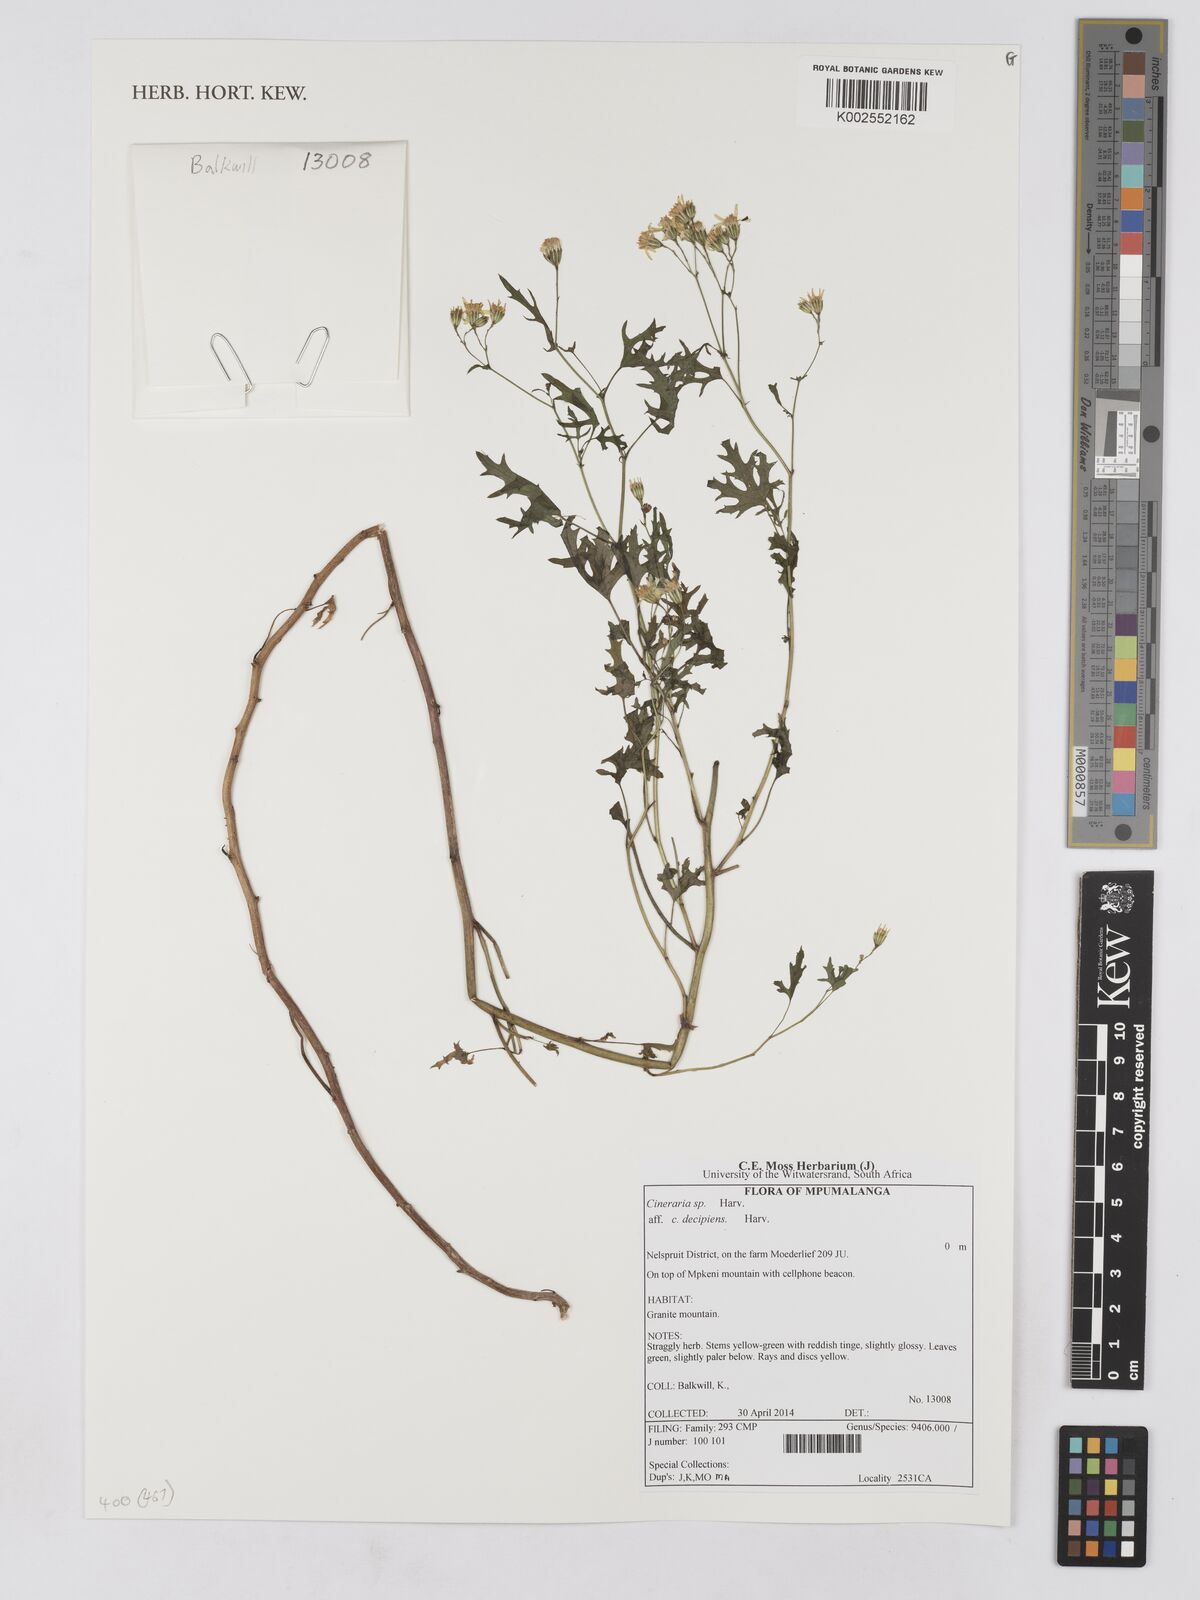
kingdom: Plantae
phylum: Tracheophyta
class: Magnoliopsida
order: Asterales
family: Asteraceae
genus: Cineraria
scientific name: Cineraria decipiens
